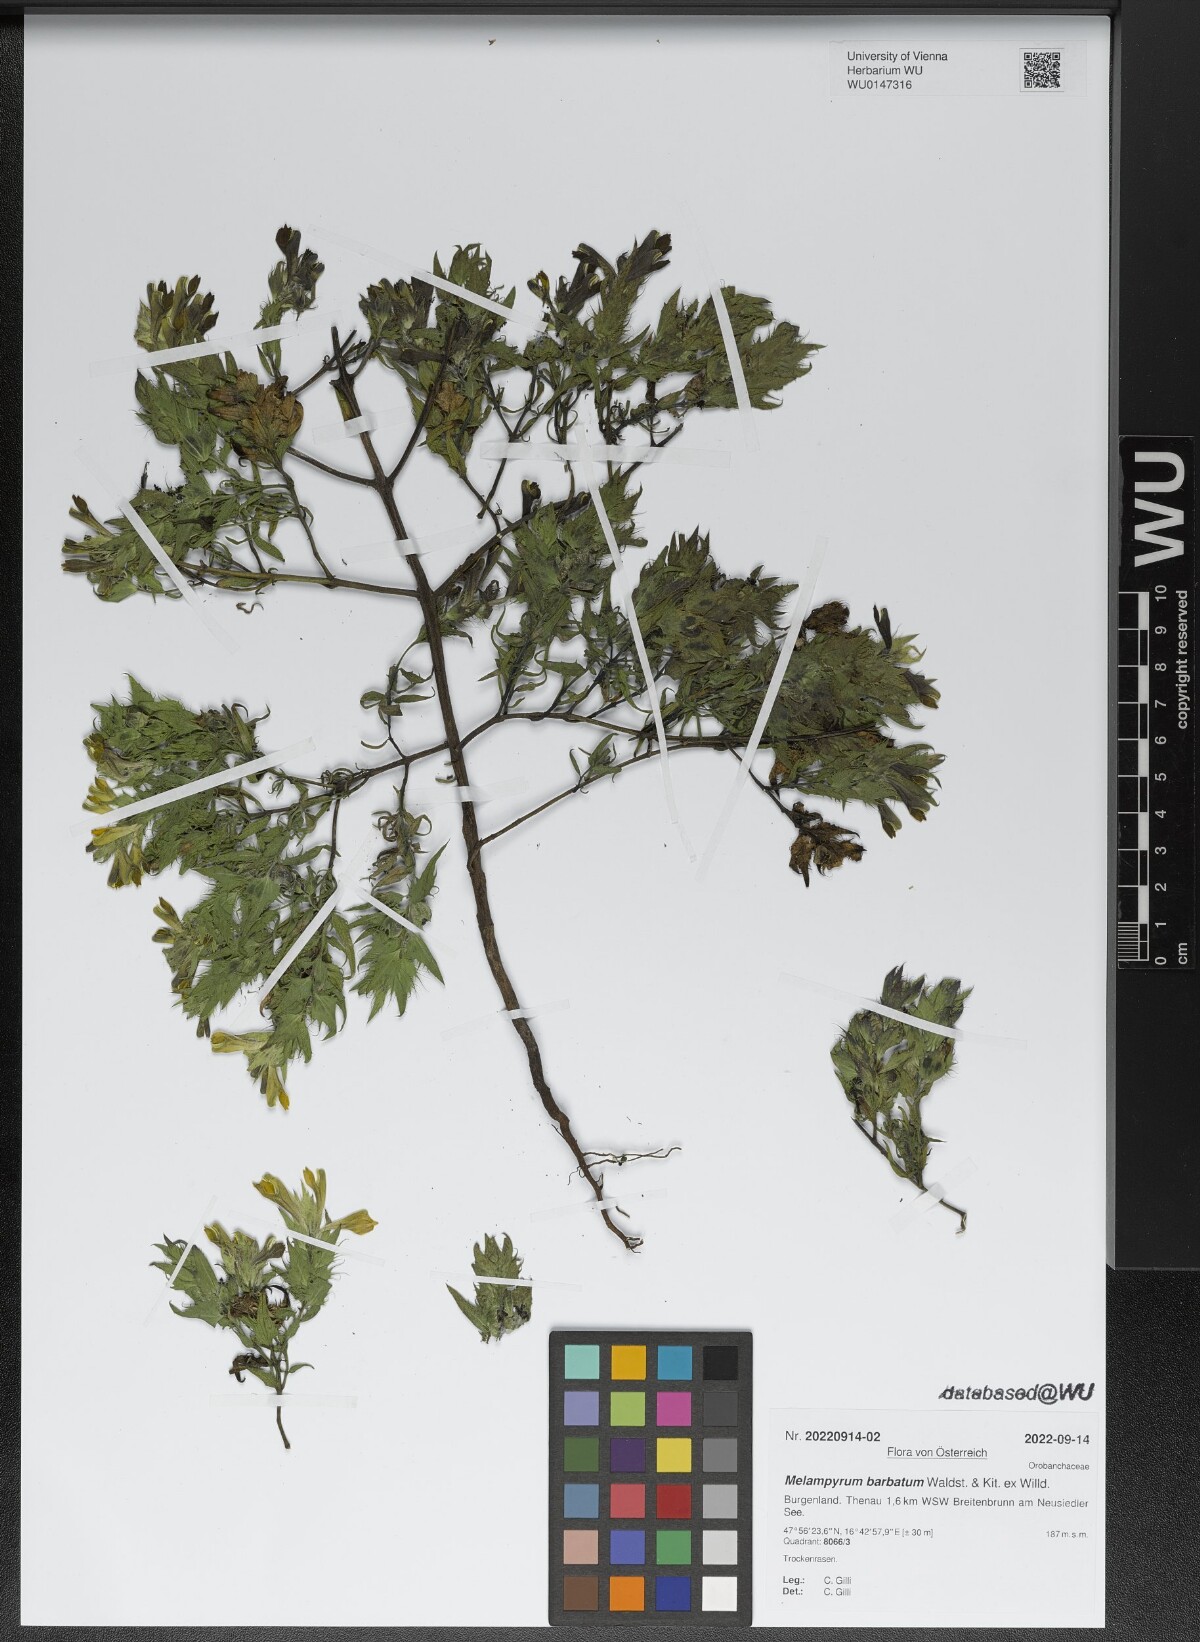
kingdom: Plantae
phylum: Tracheophyta
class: Magnoliopsida
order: Lamiales
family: Orobanchaceae
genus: Melampyrum
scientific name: Melampyrum barbatum
